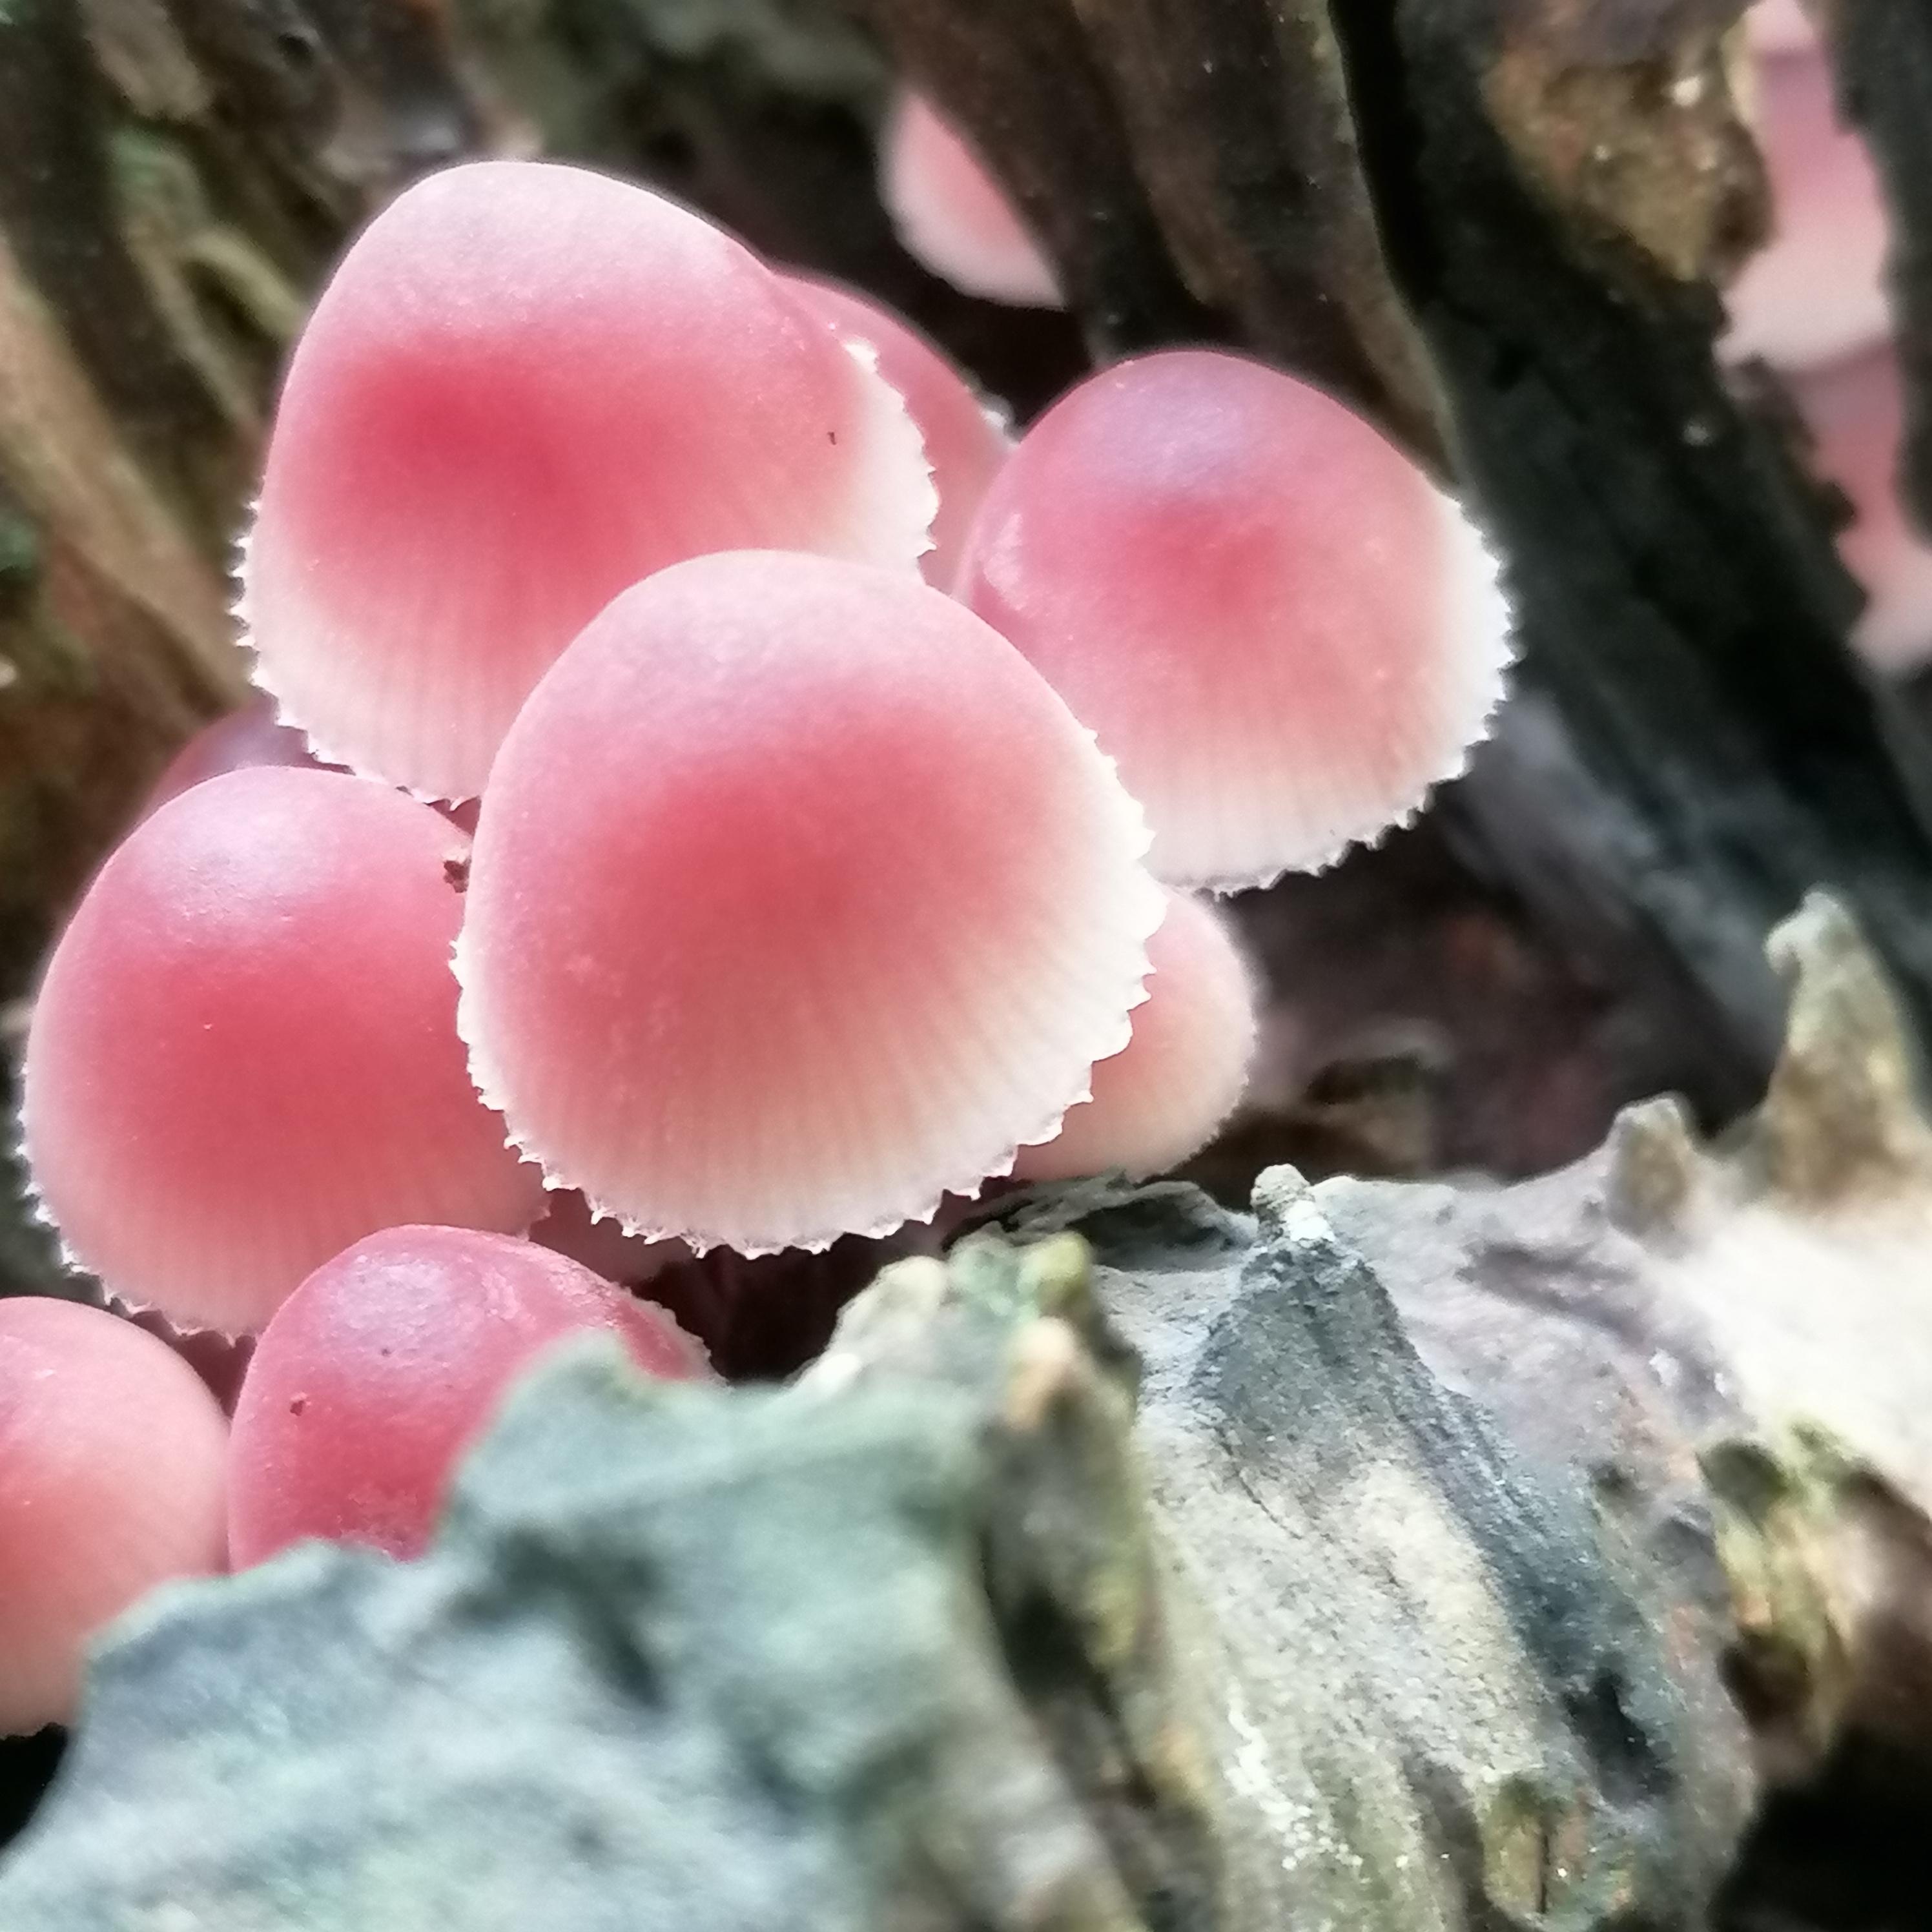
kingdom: Fungi
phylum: Basidiomycota
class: Agaricomycetes
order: Agaricales
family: Mycenaceae
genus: Mycena
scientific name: Mycena haematopus
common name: blødende huesvamp
